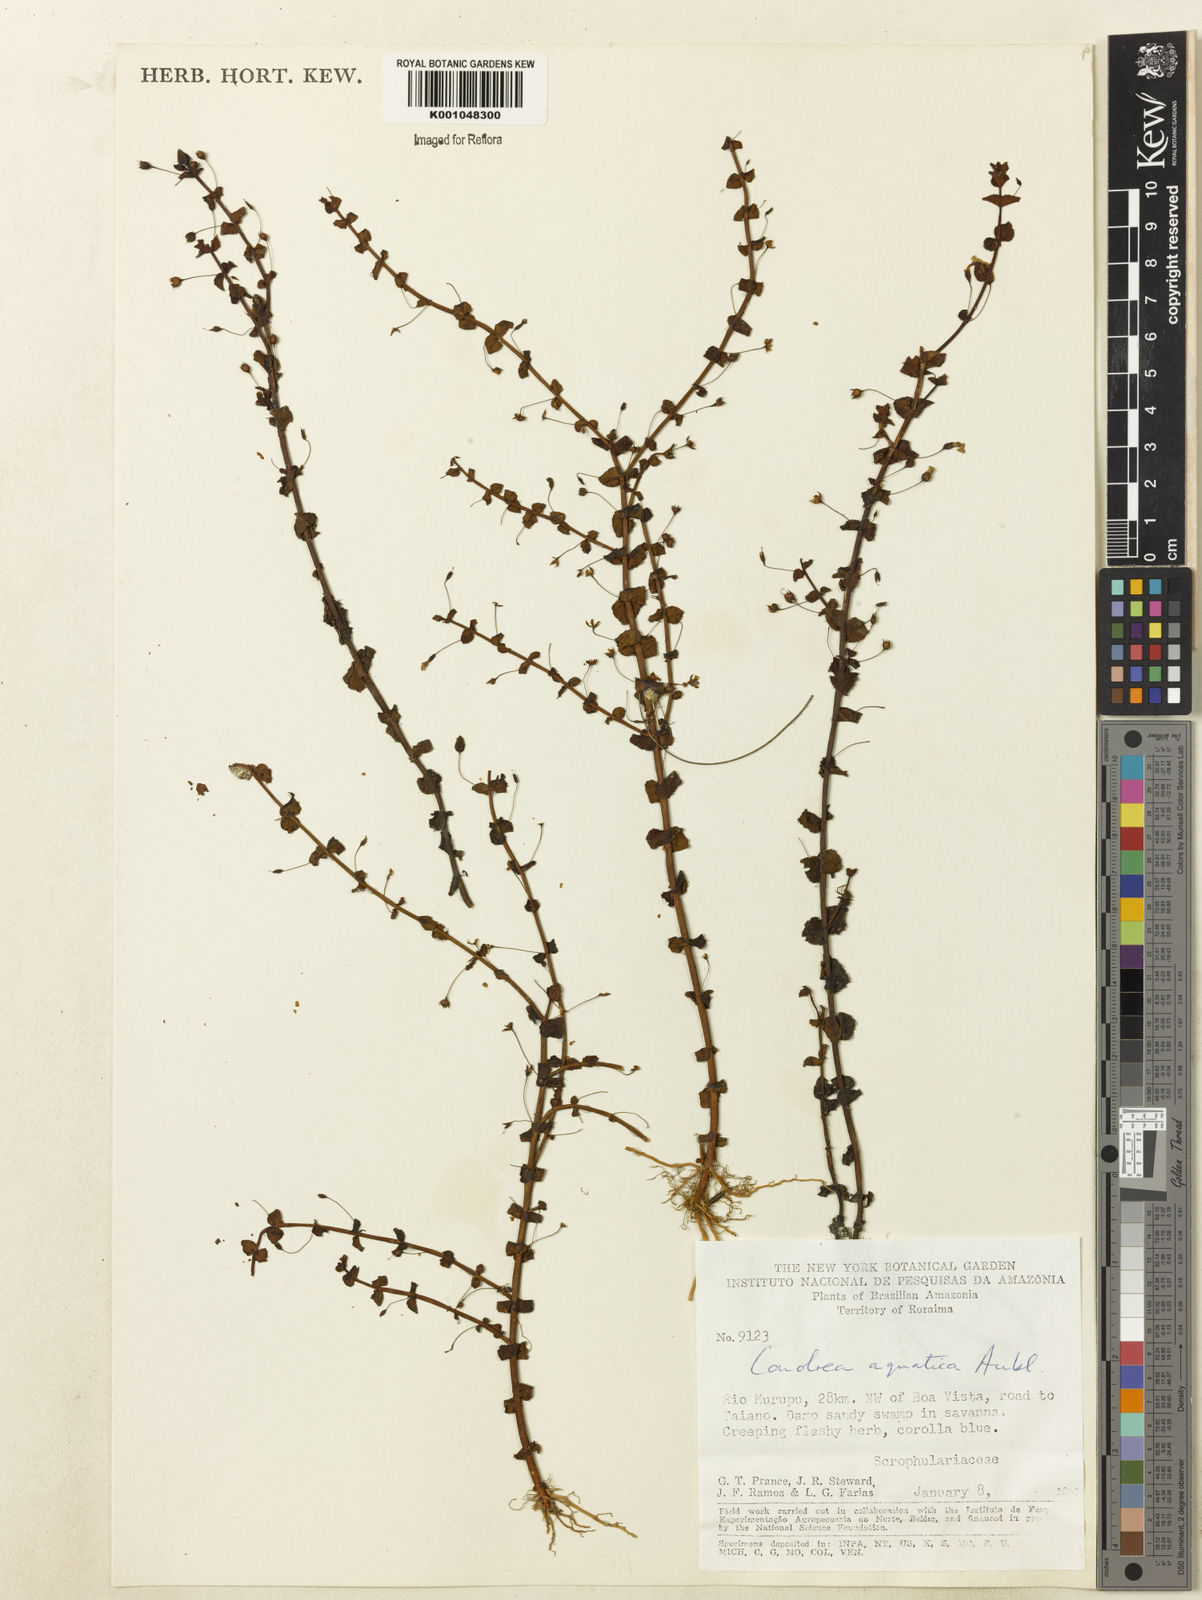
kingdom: Plantae
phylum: Tracheophyta
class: Magnoliopsida
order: Lamiales
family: Plantaginaceae
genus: Conobea
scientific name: Conobea aquatica
